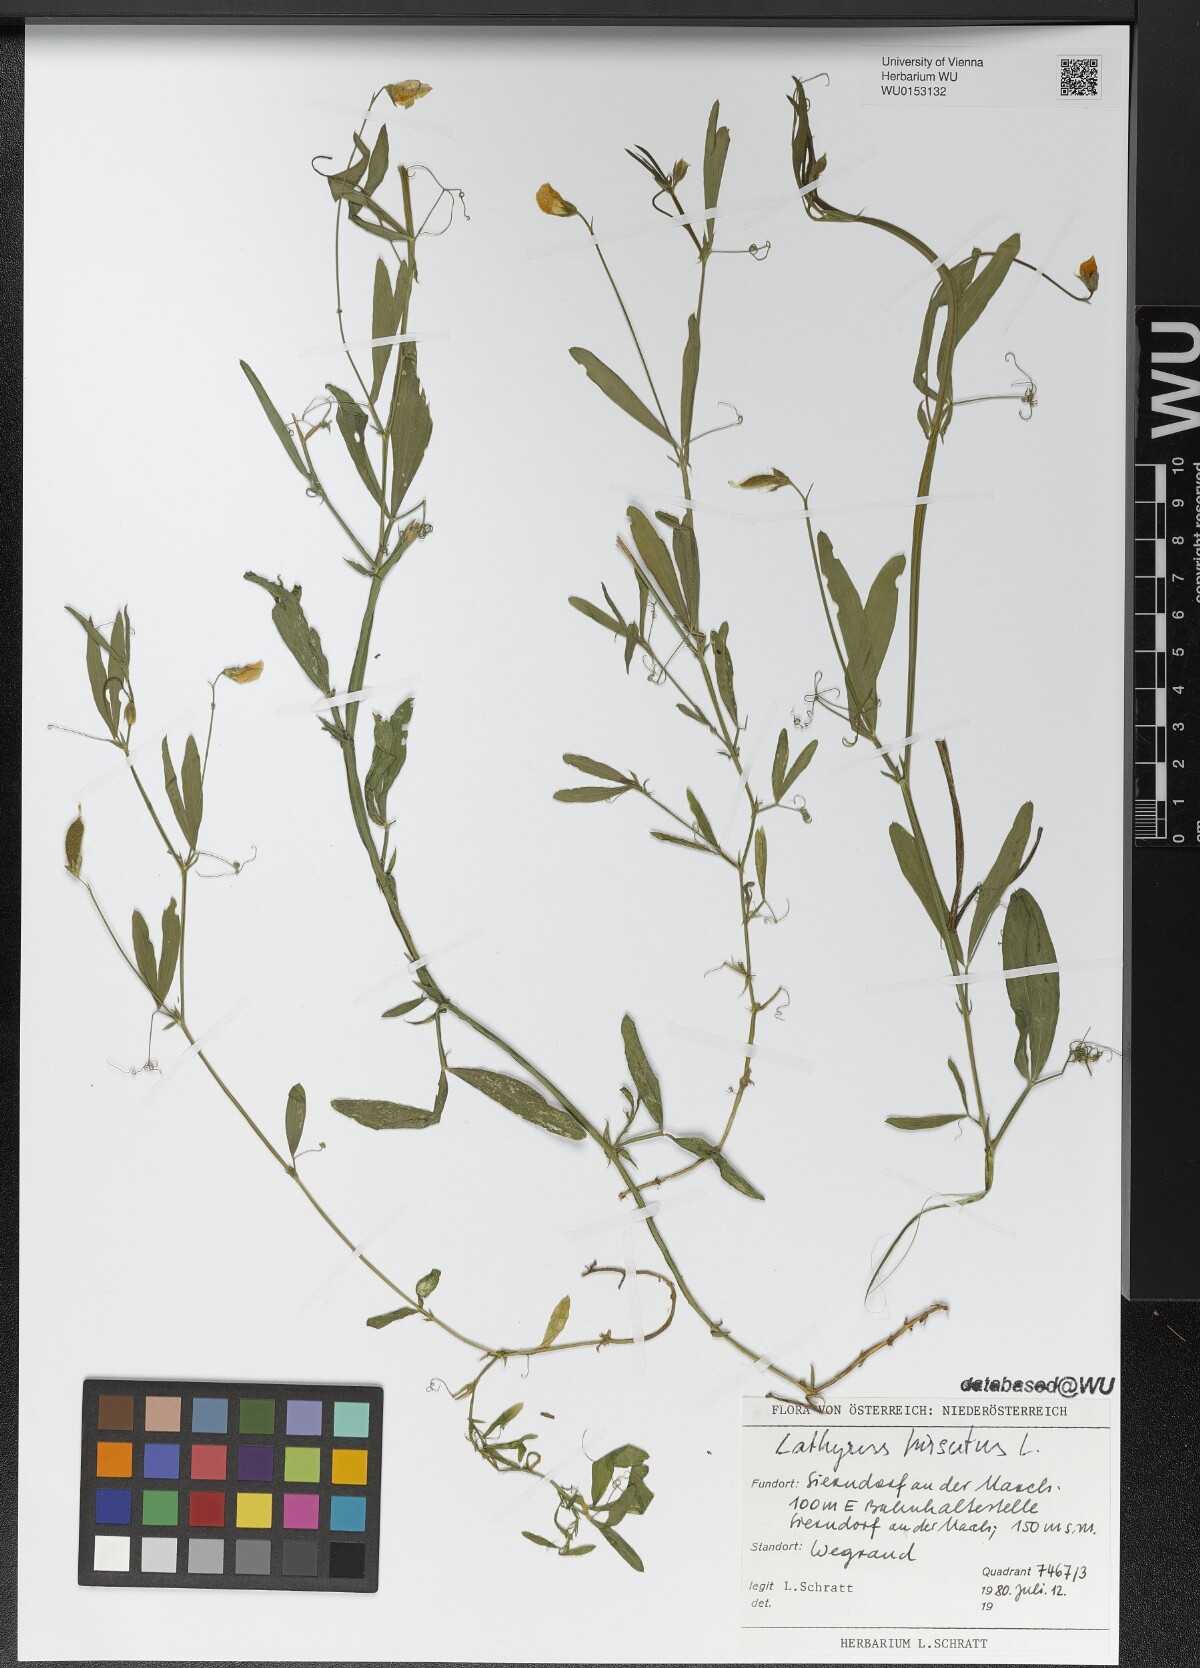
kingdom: Plantae
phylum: Tracheophyta
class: Magnoliopsida
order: Fabales
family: Fabaceae
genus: Lathyrus
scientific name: Lathyrus hirsutus
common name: Hairy vetchling
